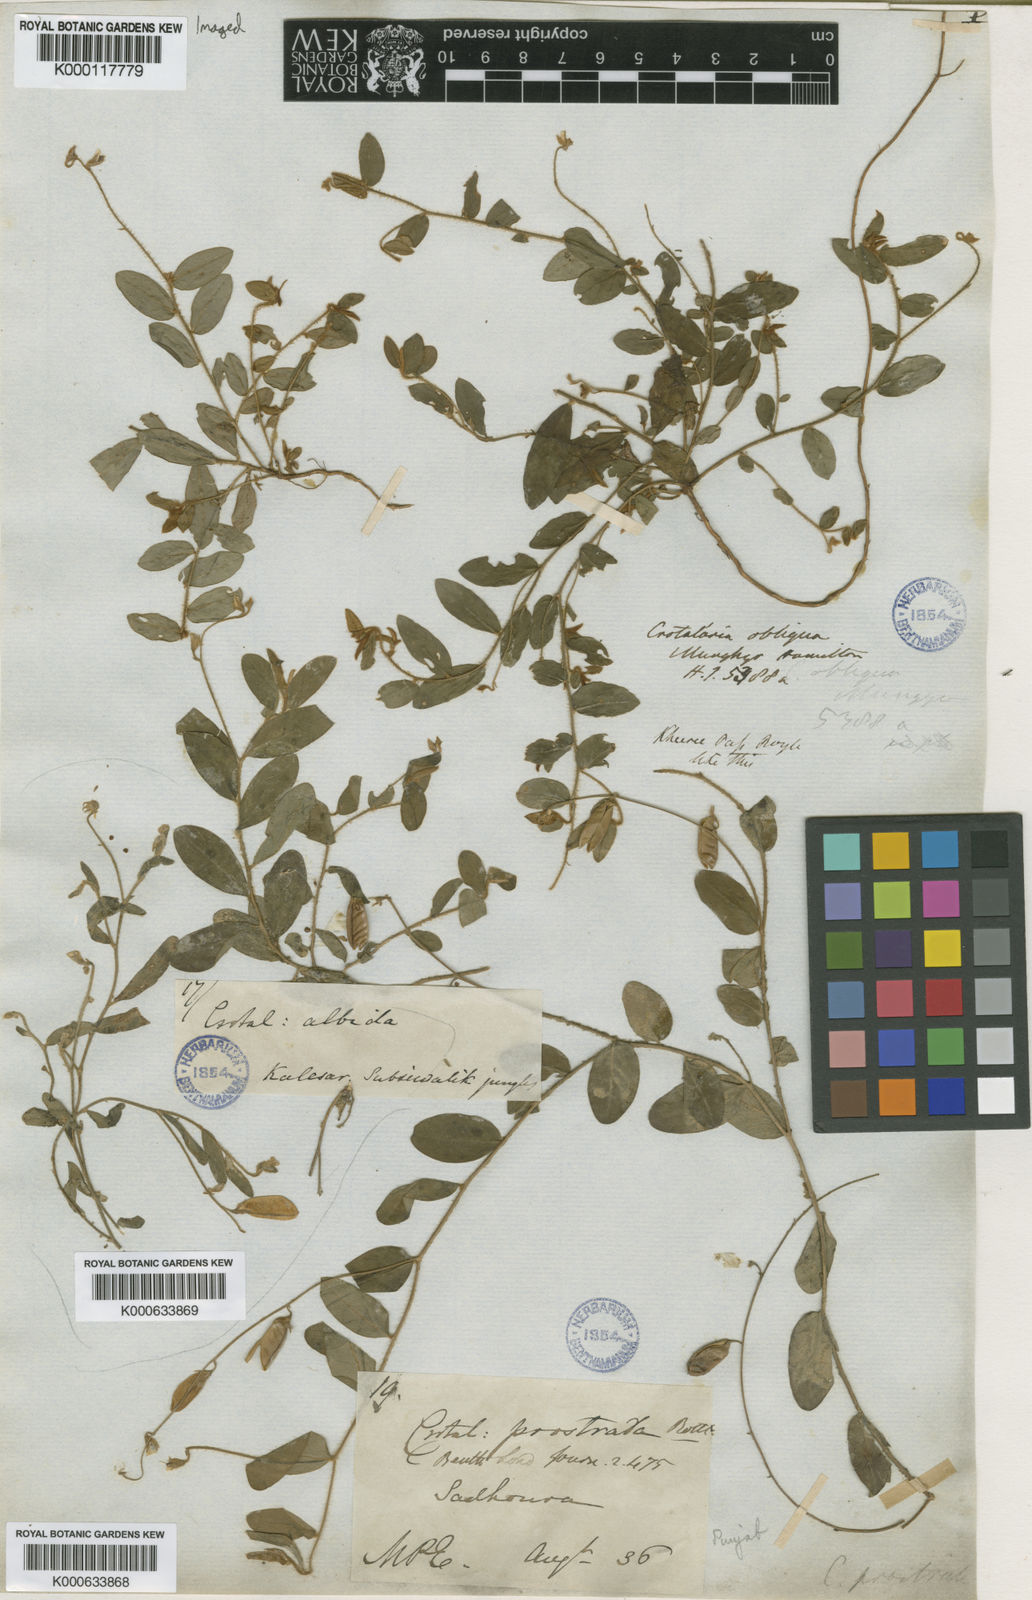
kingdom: Plantae
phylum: Tracheophyta
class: Magnoliopsida
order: Fabales
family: Fabaceae
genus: Crotalaria
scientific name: Crotalaria prostrata
